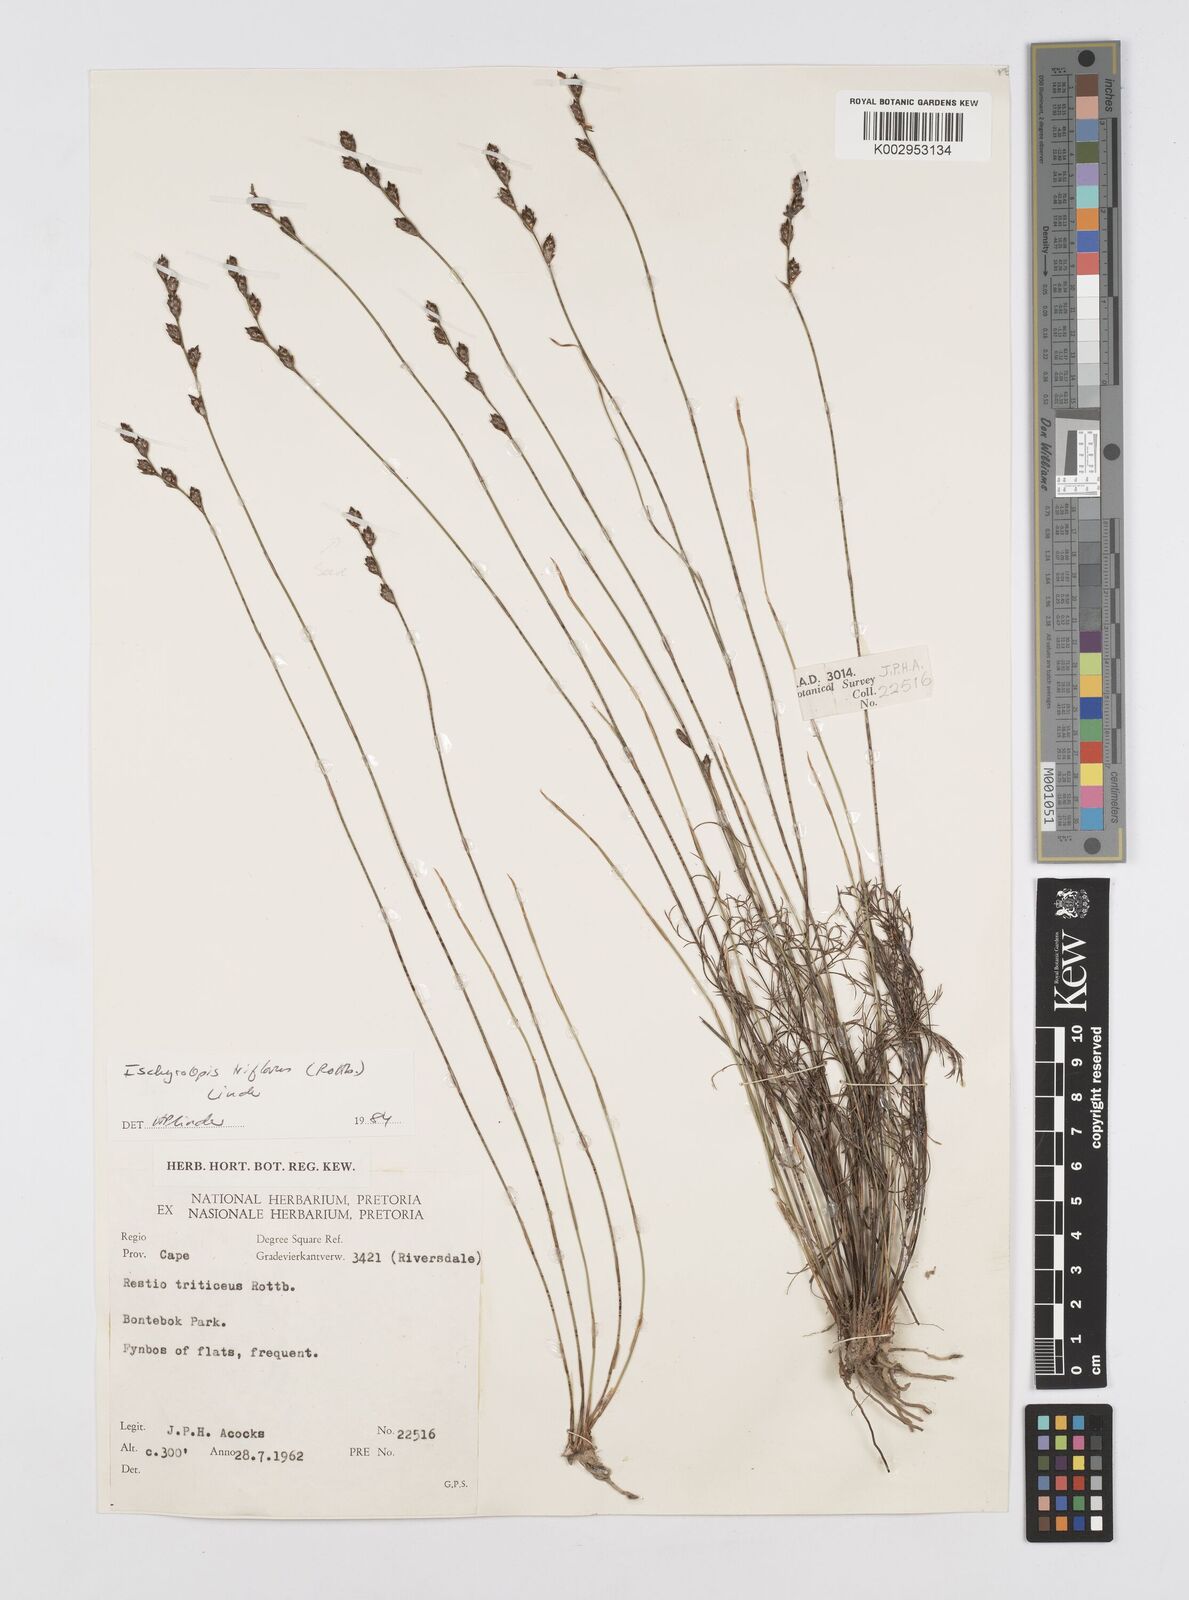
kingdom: Plantae
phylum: Tracheophyta
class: Liliopsida
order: Poales
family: Restionaceae
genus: Restio
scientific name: Restio triflorus
